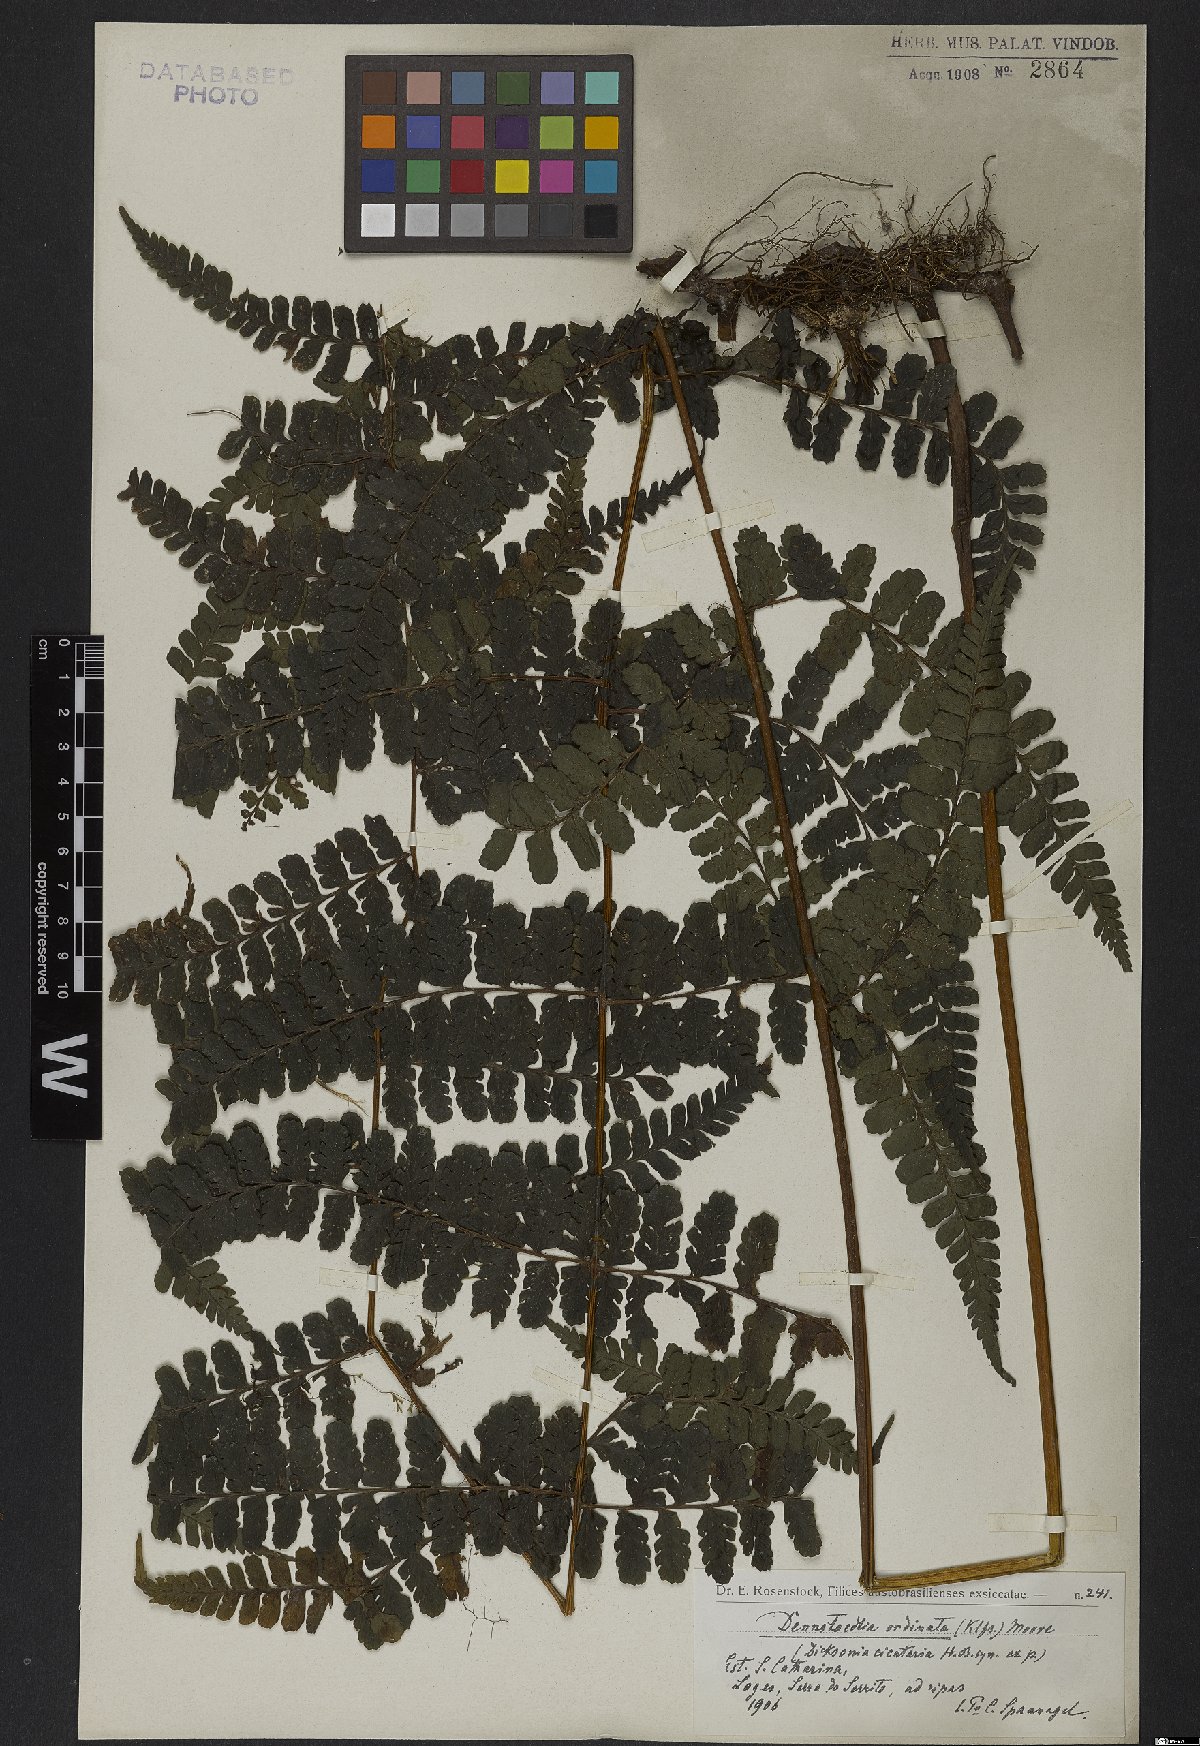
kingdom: Plantae
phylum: Tracheophyta
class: Polypodiopsida
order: Polypodiales
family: Dennstaedtiaceae
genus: Dennstaedtia
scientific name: Dennstaedtia obtusifolia
